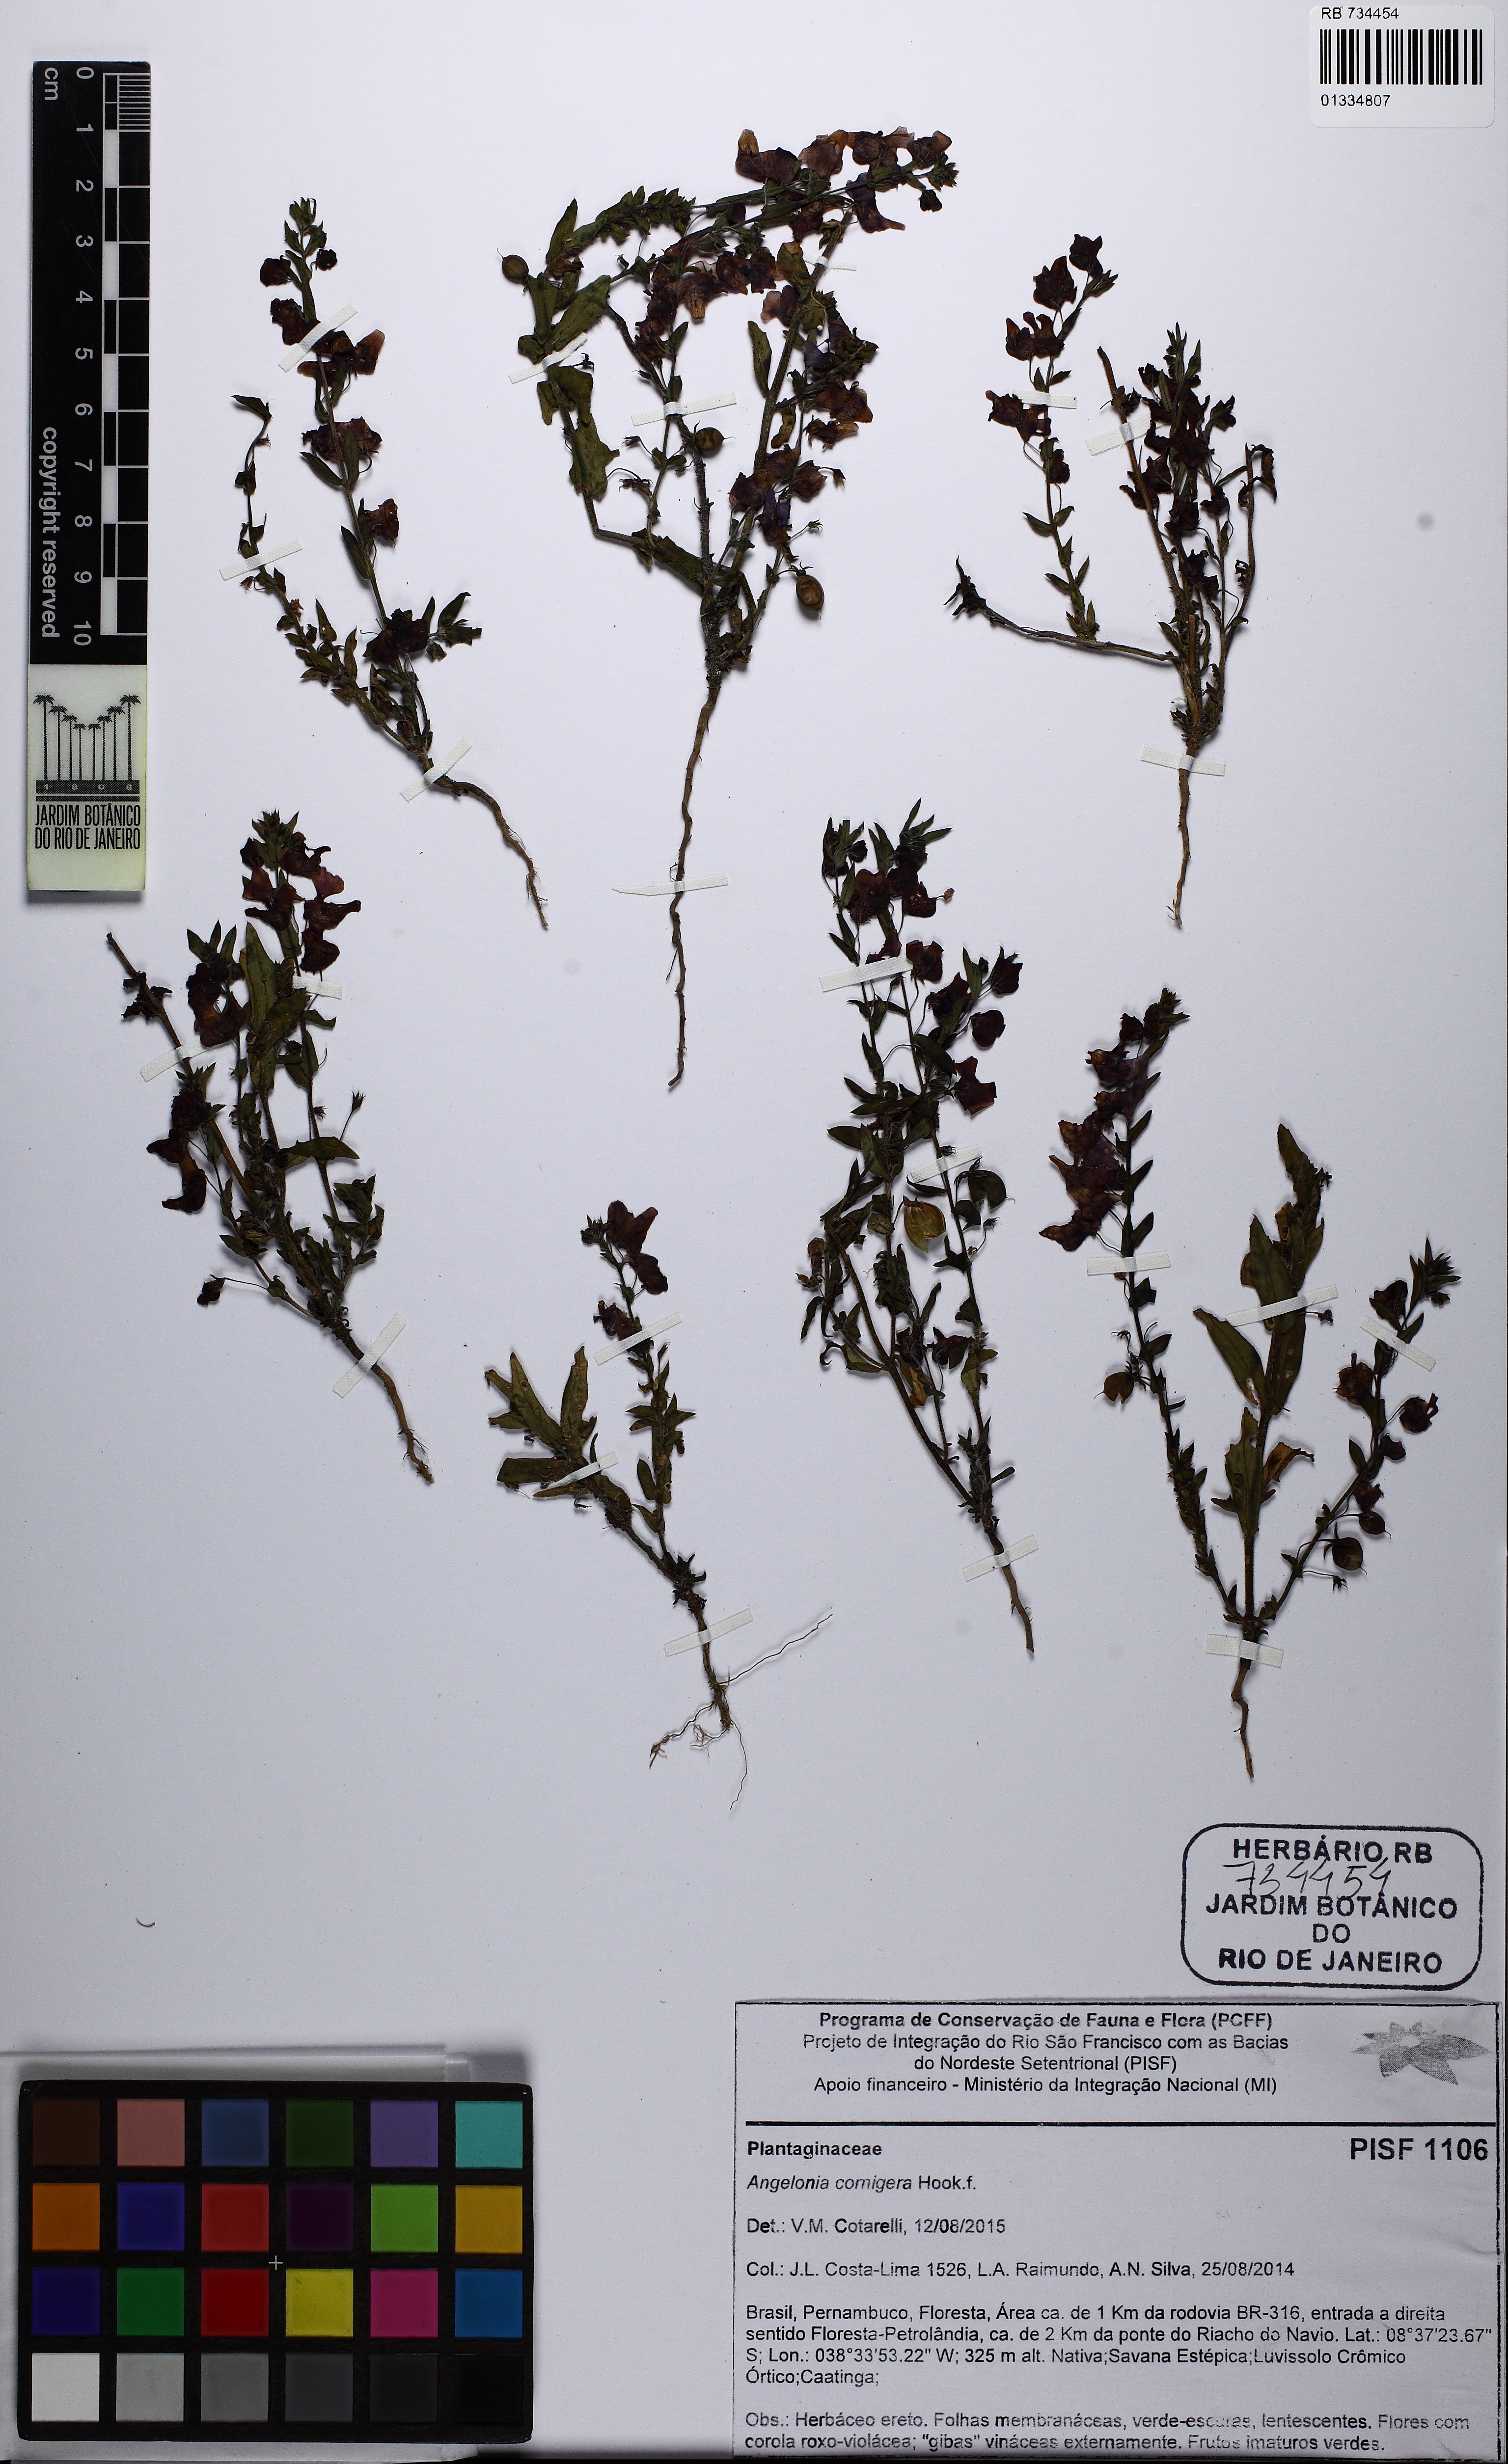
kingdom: Plantae
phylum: Tracheophyta
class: Magnoliopsida
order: Lamiales
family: Plantaginaceae
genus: Angelonia
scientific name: Angelonia cornigera
